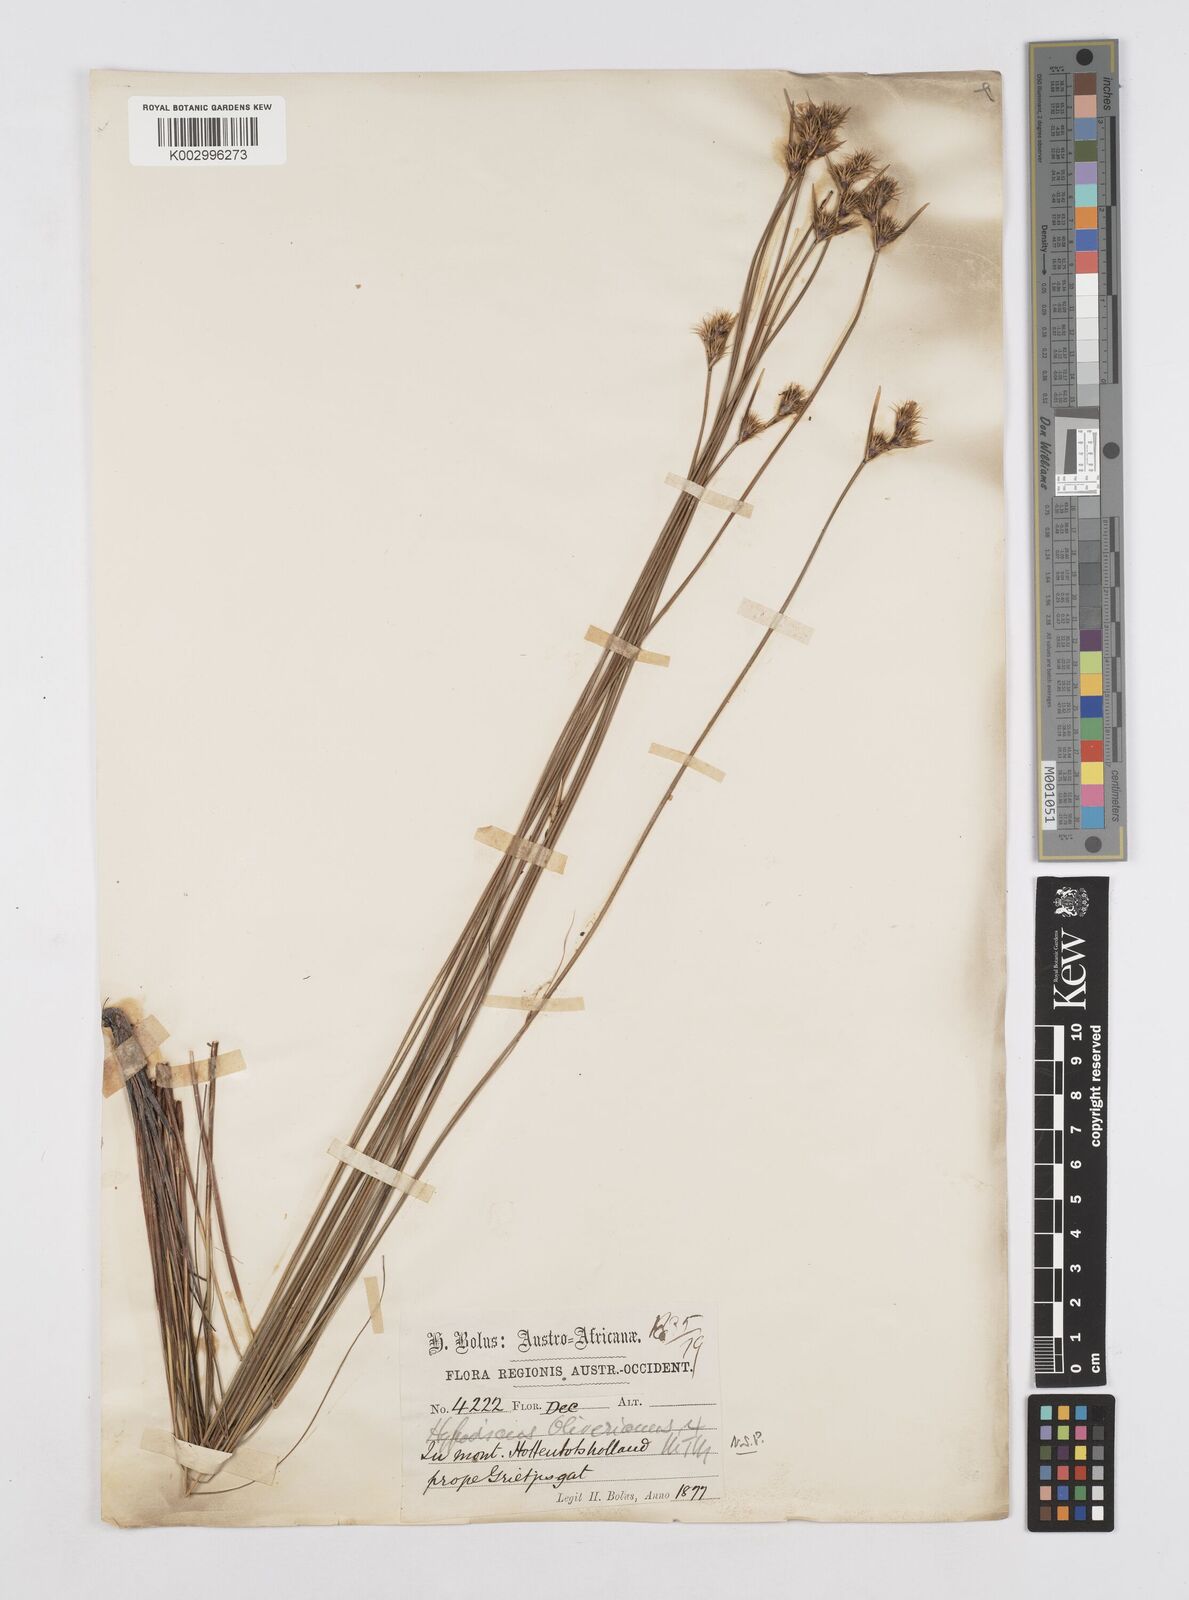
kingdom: Plantae
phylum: Tracheophyta
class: Liliopsida
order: Poales
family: Restionaceae
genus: Hypodiscus
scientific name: Hypodiscus alboaristatus
